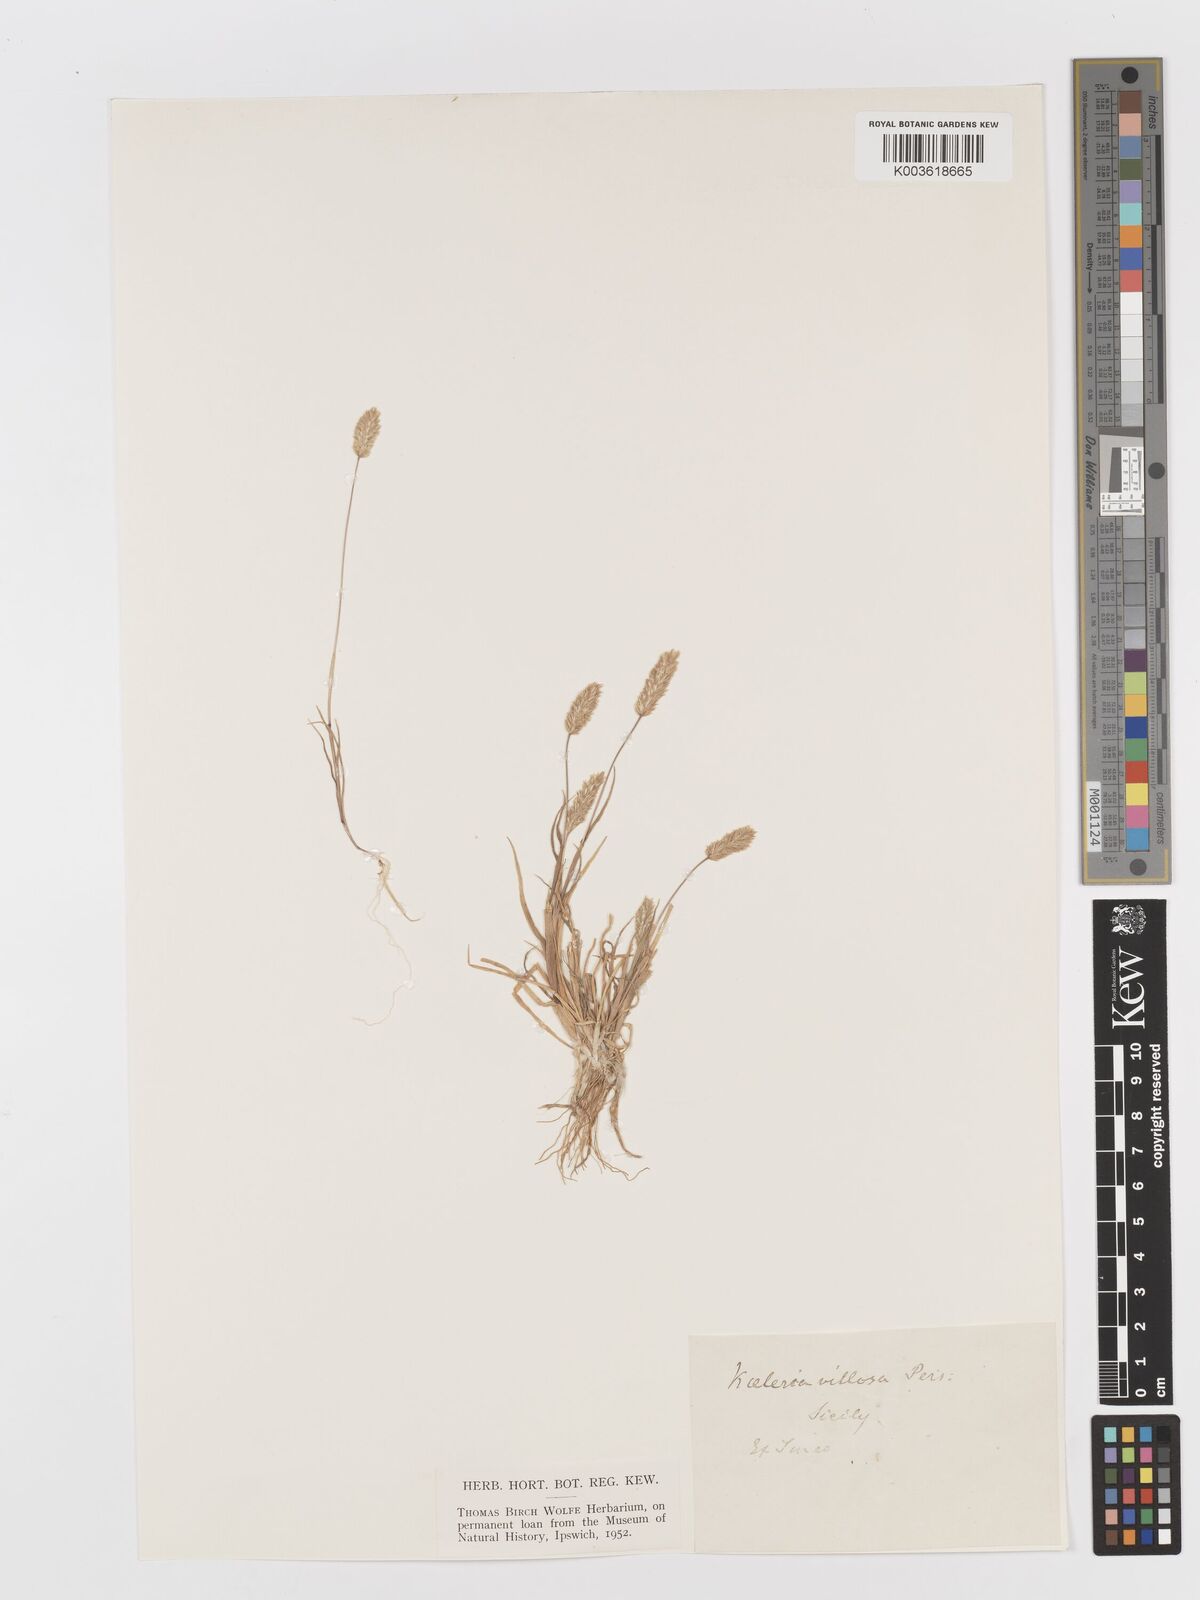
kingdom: Plantae
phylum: Tracheophyta
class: Liliopsida
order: Poales
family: Poaceae
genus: Rostraria
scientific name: Rostraria
